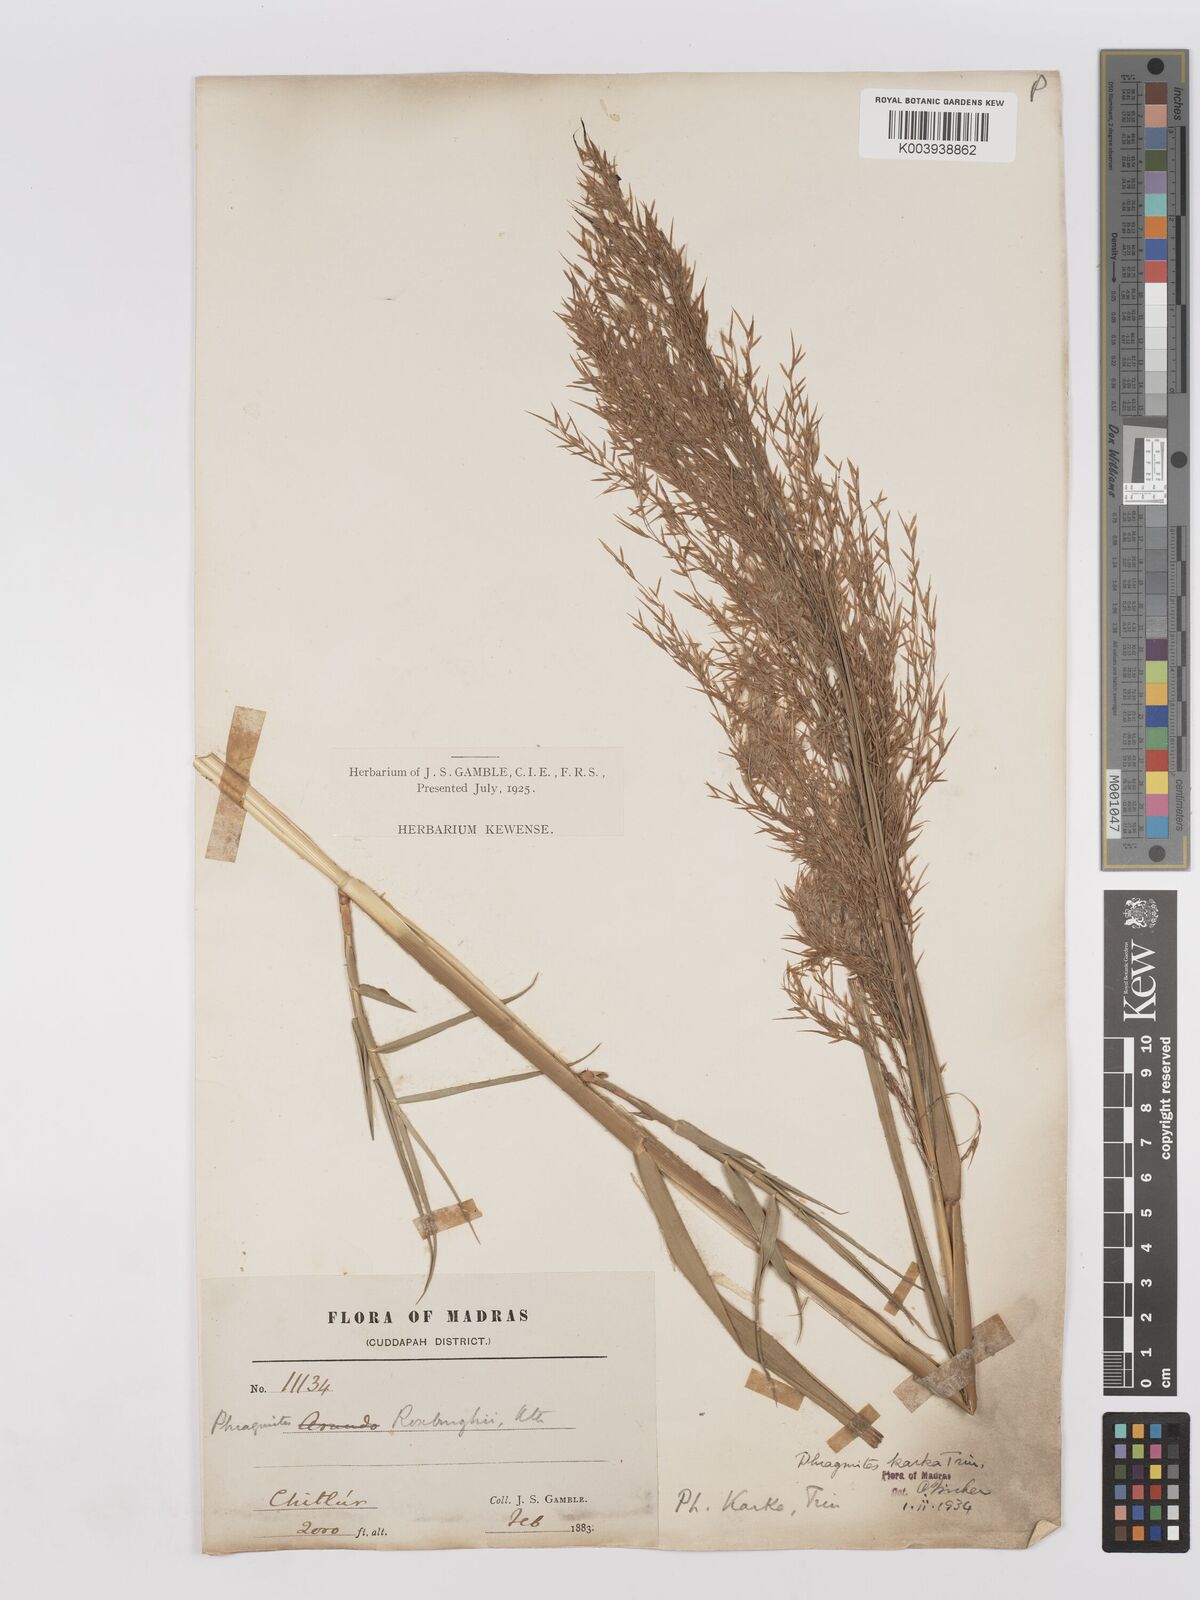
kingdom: Plantae
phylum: Tracheophyta
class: Liliopsida
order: Poales
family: Poaceae
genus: Phragmites
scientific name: Phragmites karka
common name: Tropical reed
